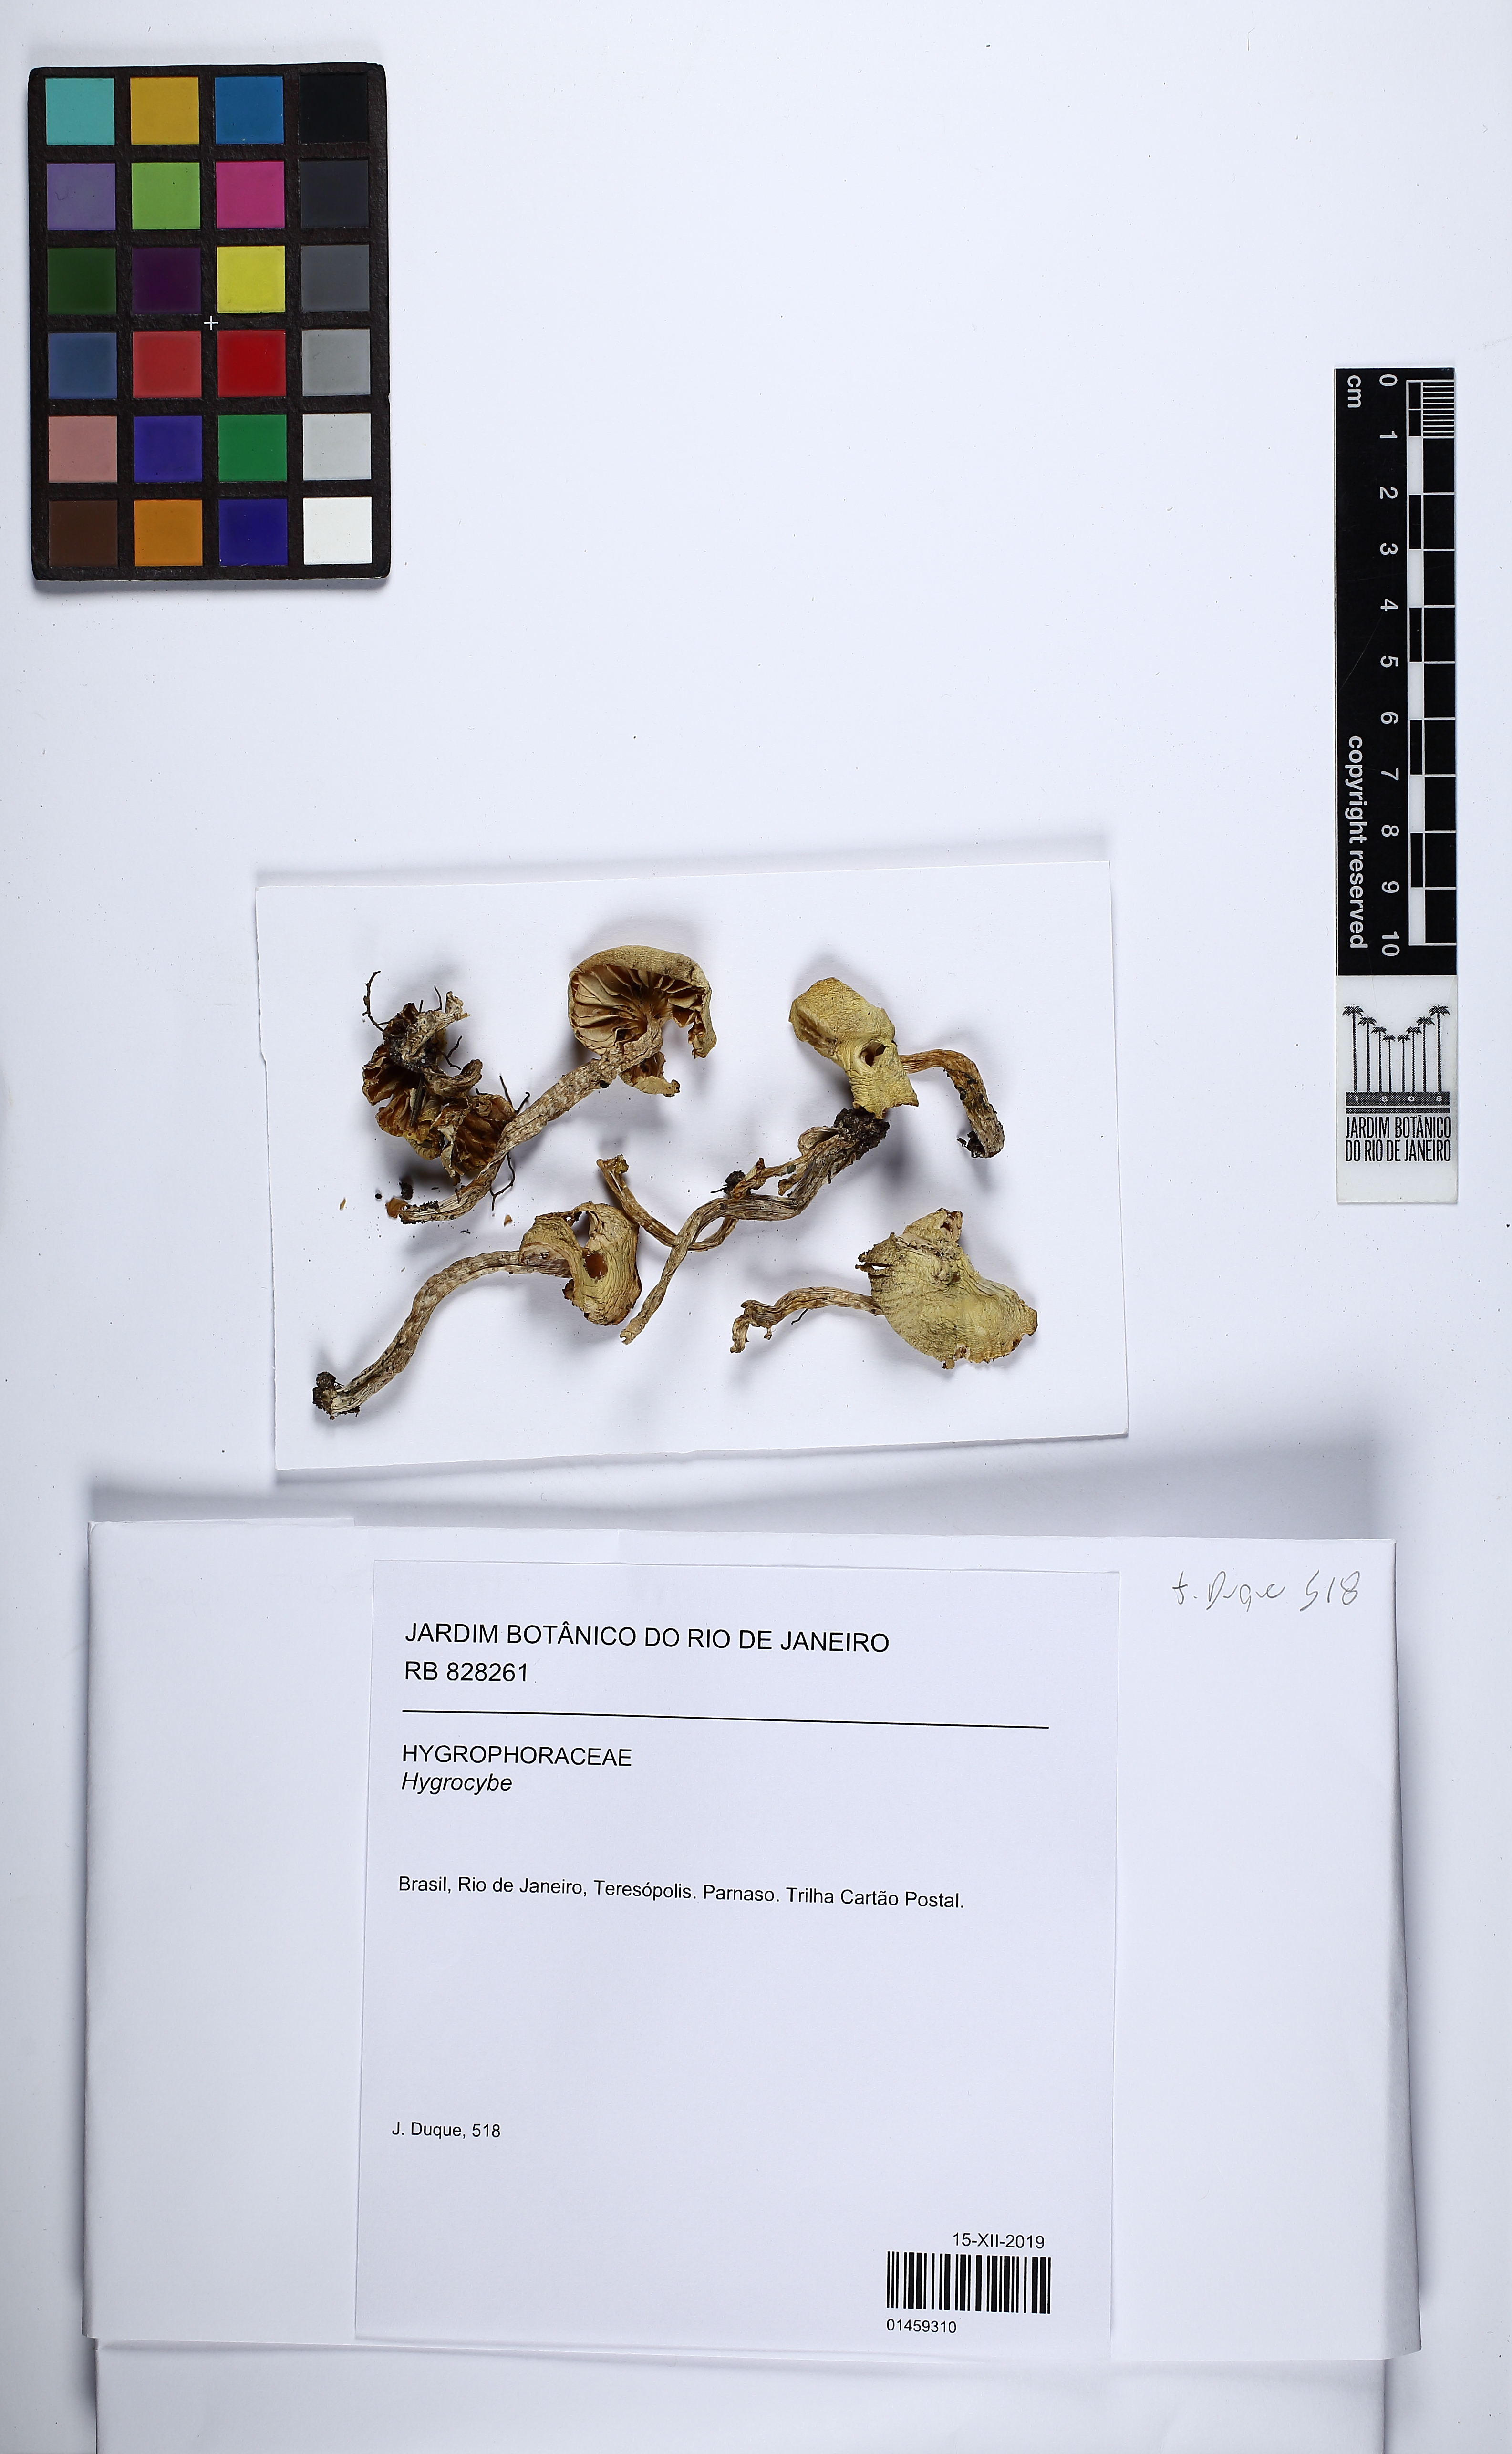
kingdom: Fungi
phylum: Basidiomycota
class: Agaricomycetes
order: Agaricales
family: Hygrophoraceae
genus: Hygrocybe
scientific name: Hygrocybe
